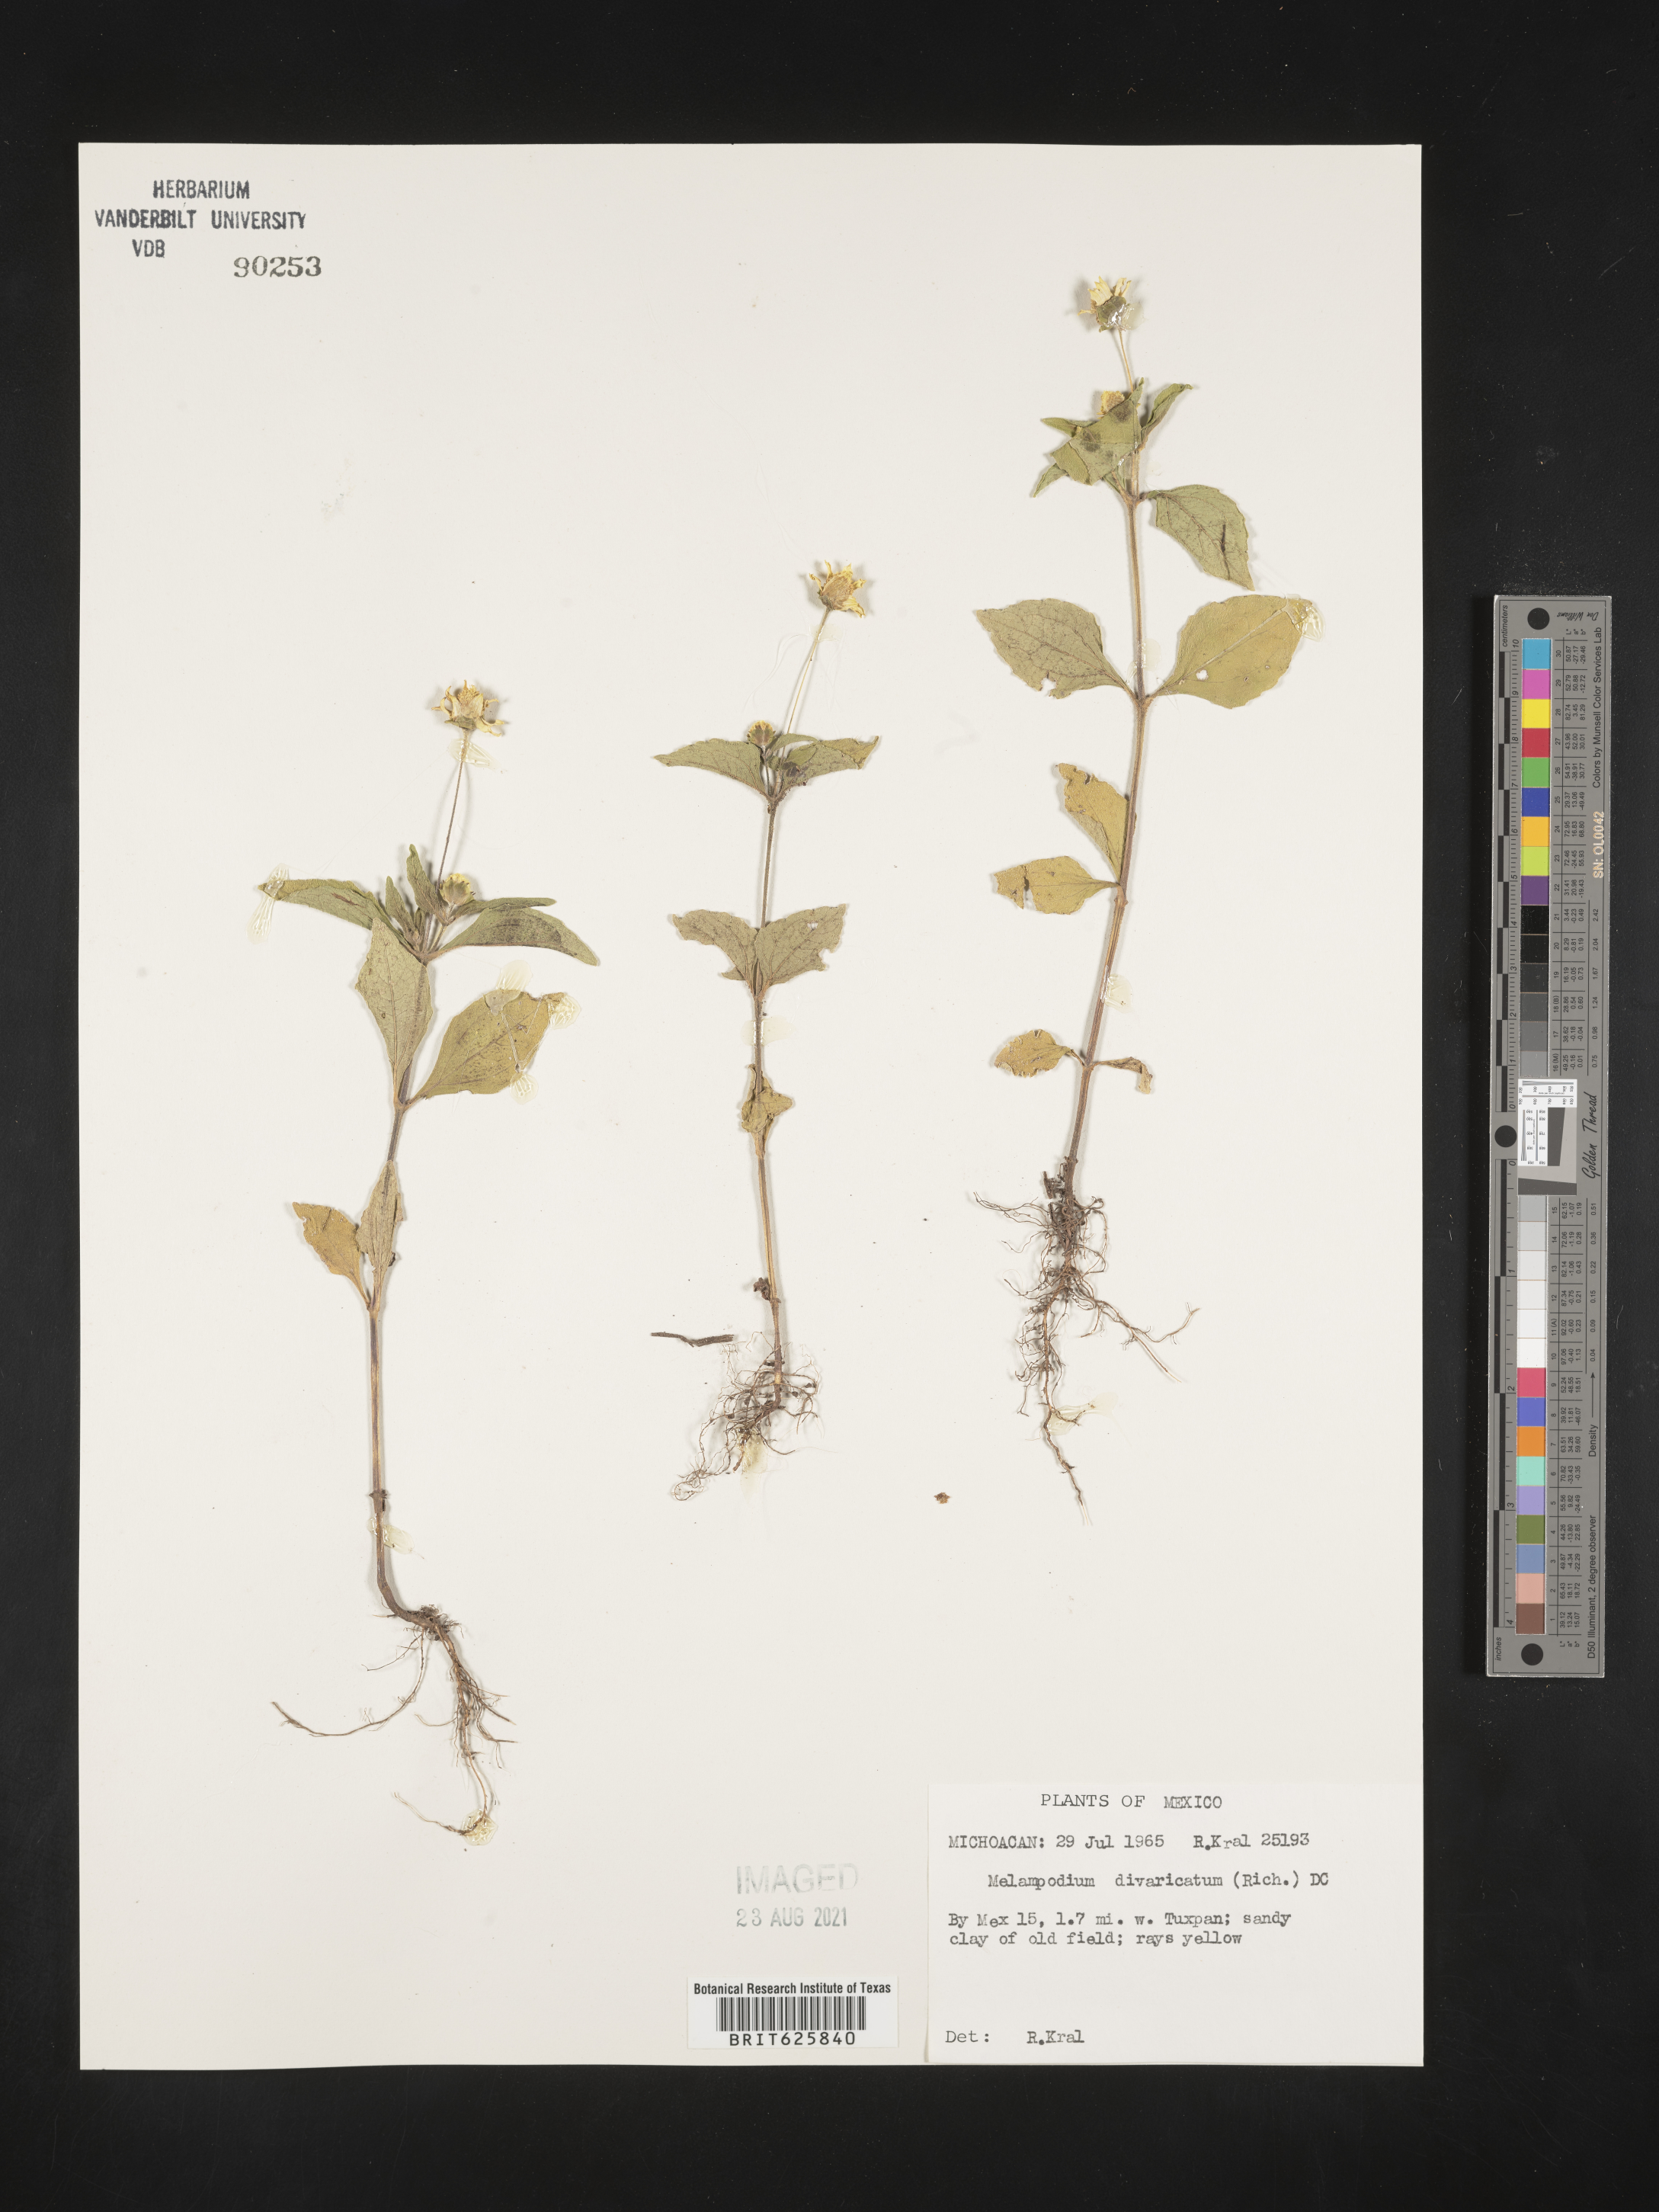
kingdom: Plantae
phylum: Tracheophyta
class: Magnoliopsida
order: Asterales
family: Asteraceae
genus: Melampodium
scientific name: Melampodium
